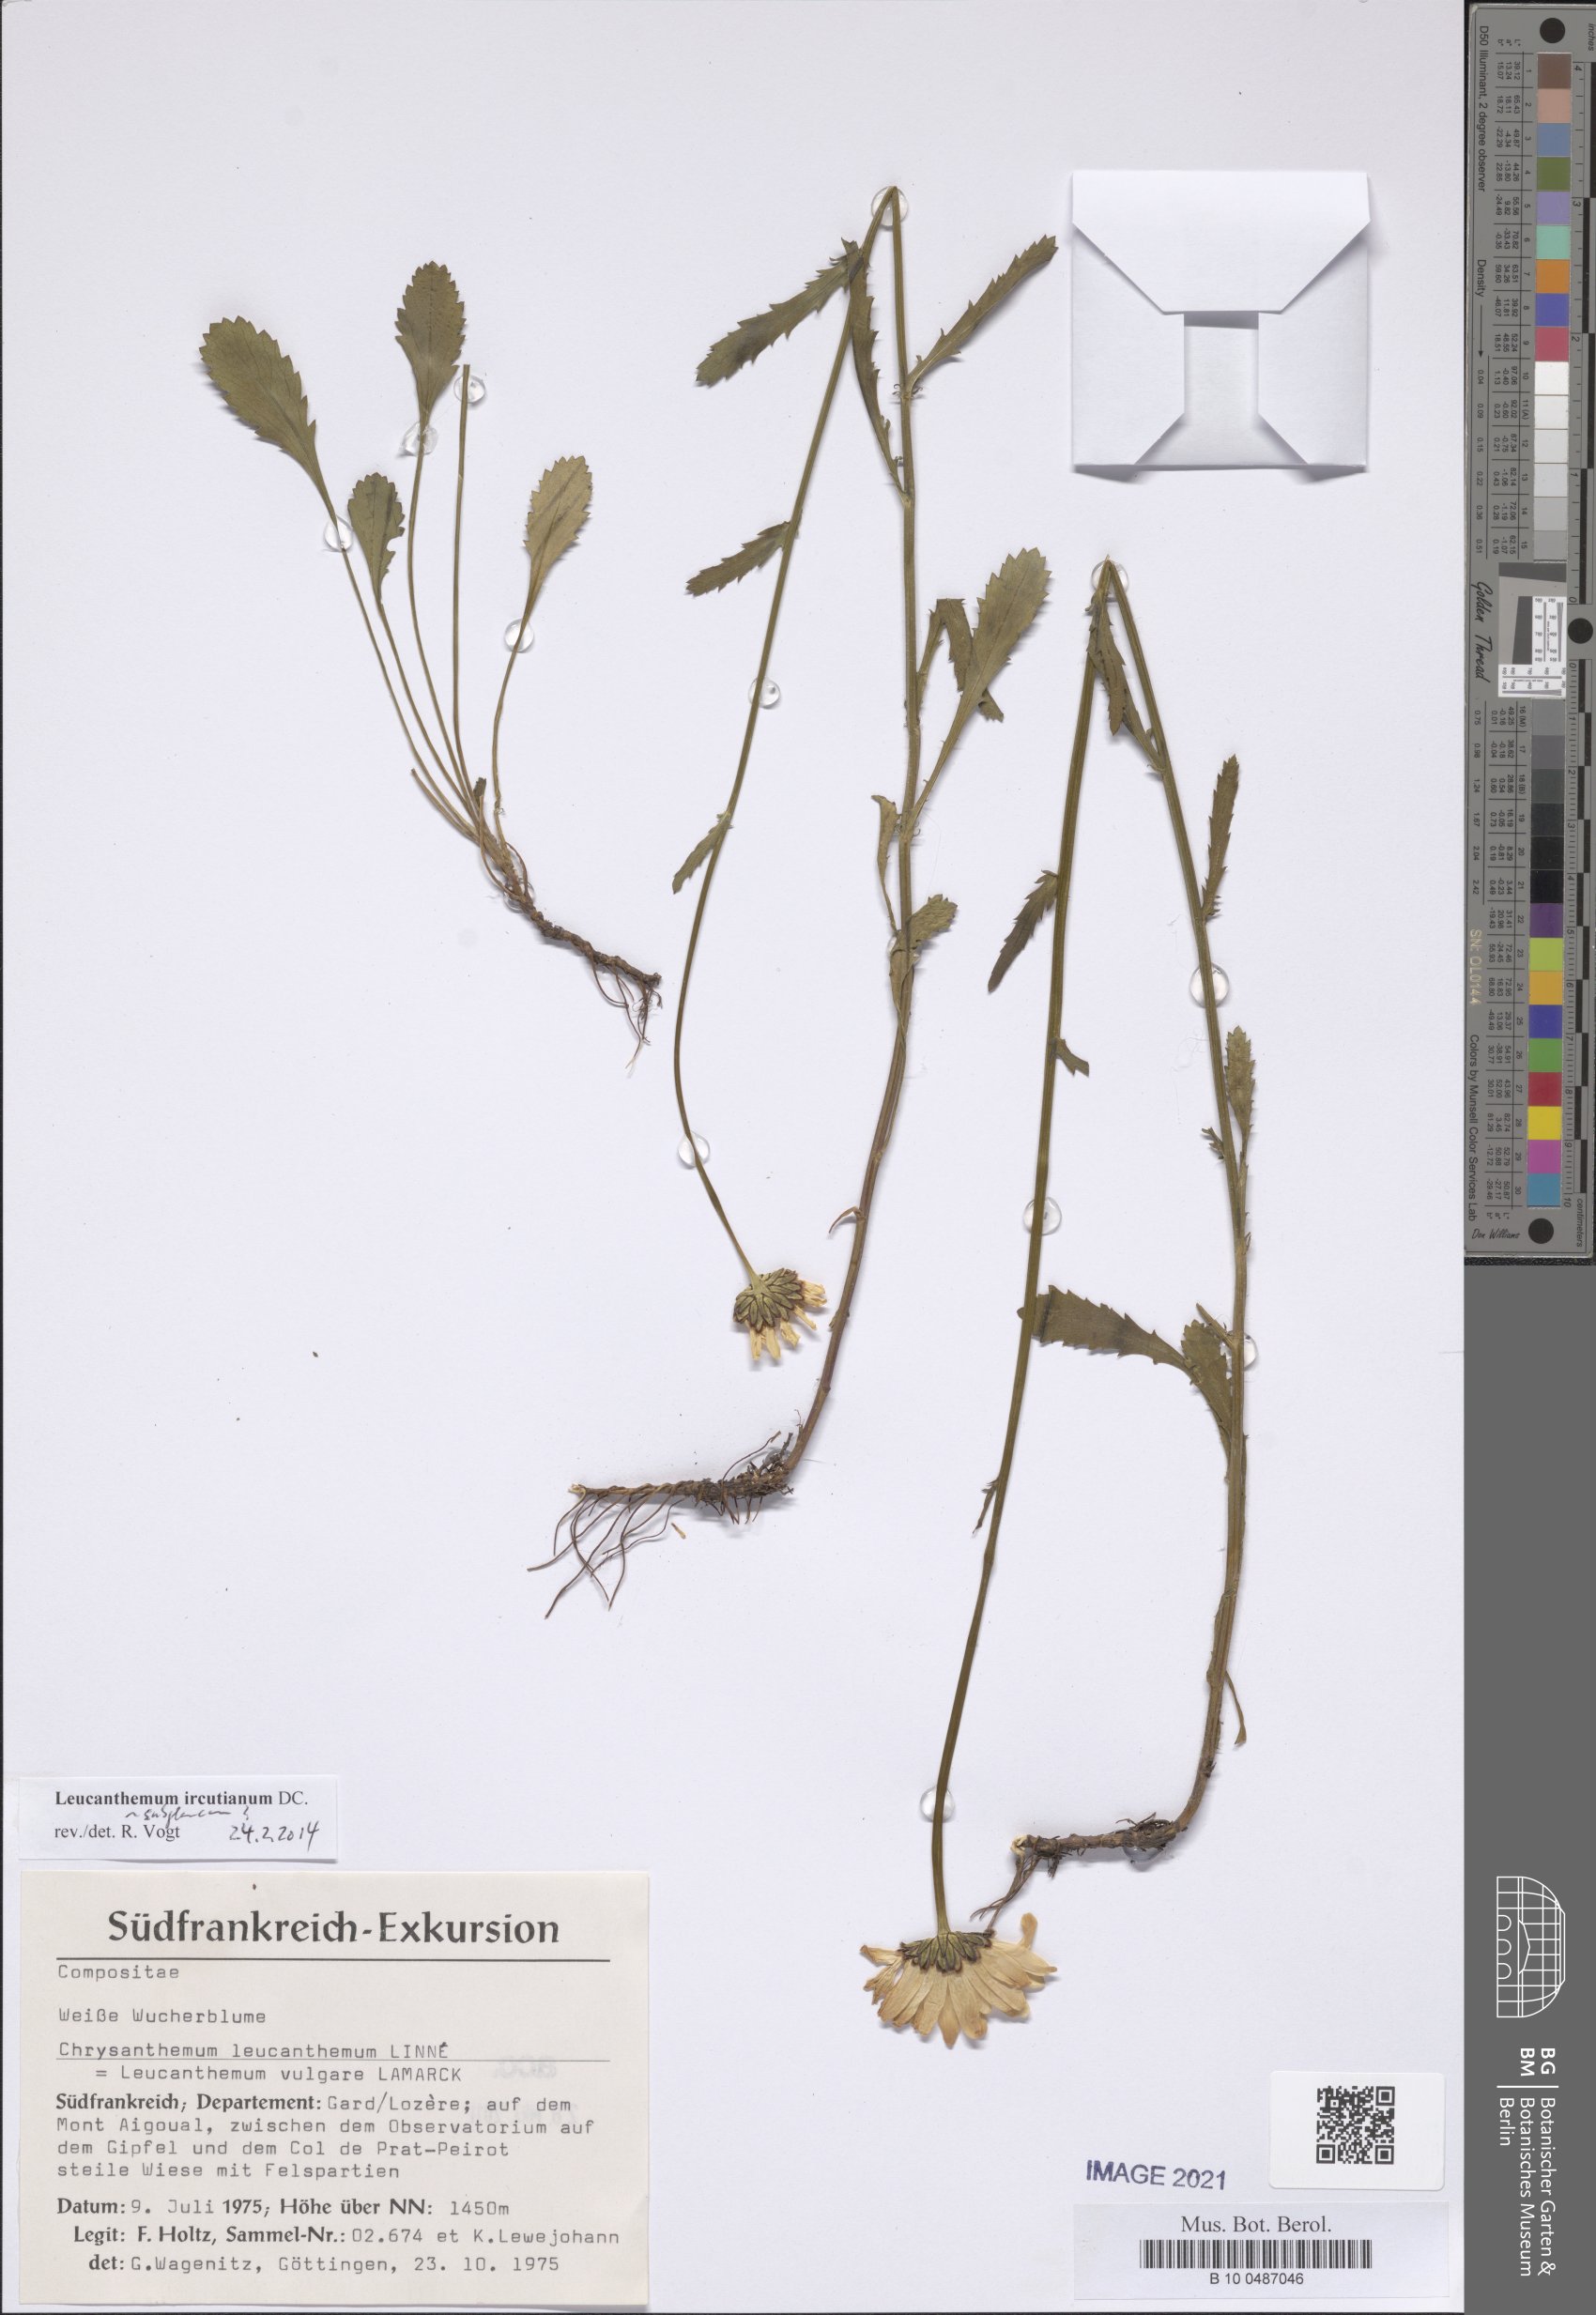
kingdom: Plantae
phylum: Tracheophyta
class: Magnoliopsida
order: Asterales
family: Asteraceae
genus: Leucanthemum
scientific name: Leucanthemum ircutianum
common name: Daisy
